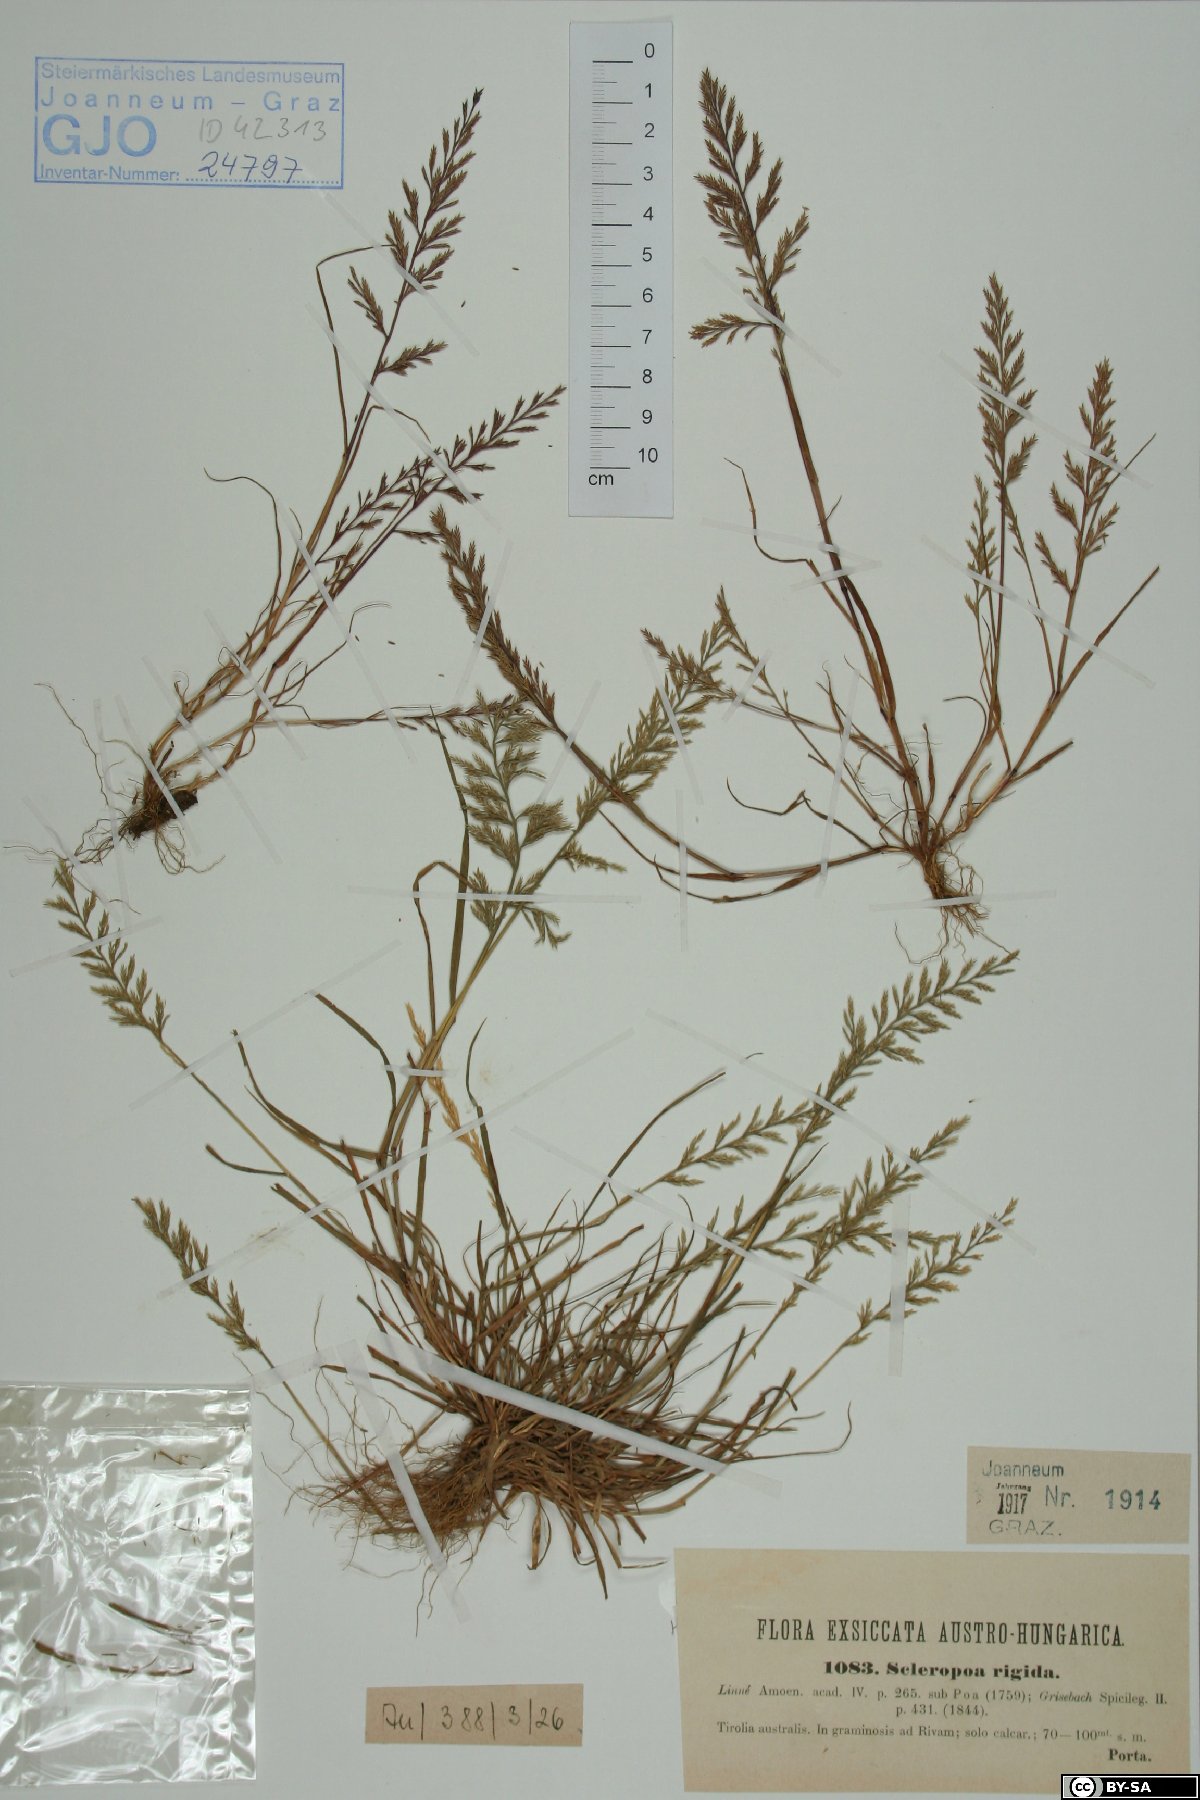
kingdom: Plantae
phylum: Tracheophyta
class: Liliopsida
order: Poales
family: Poaceae
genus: Catapodium
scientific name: Catapodium rigidum
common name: Fern-grass
